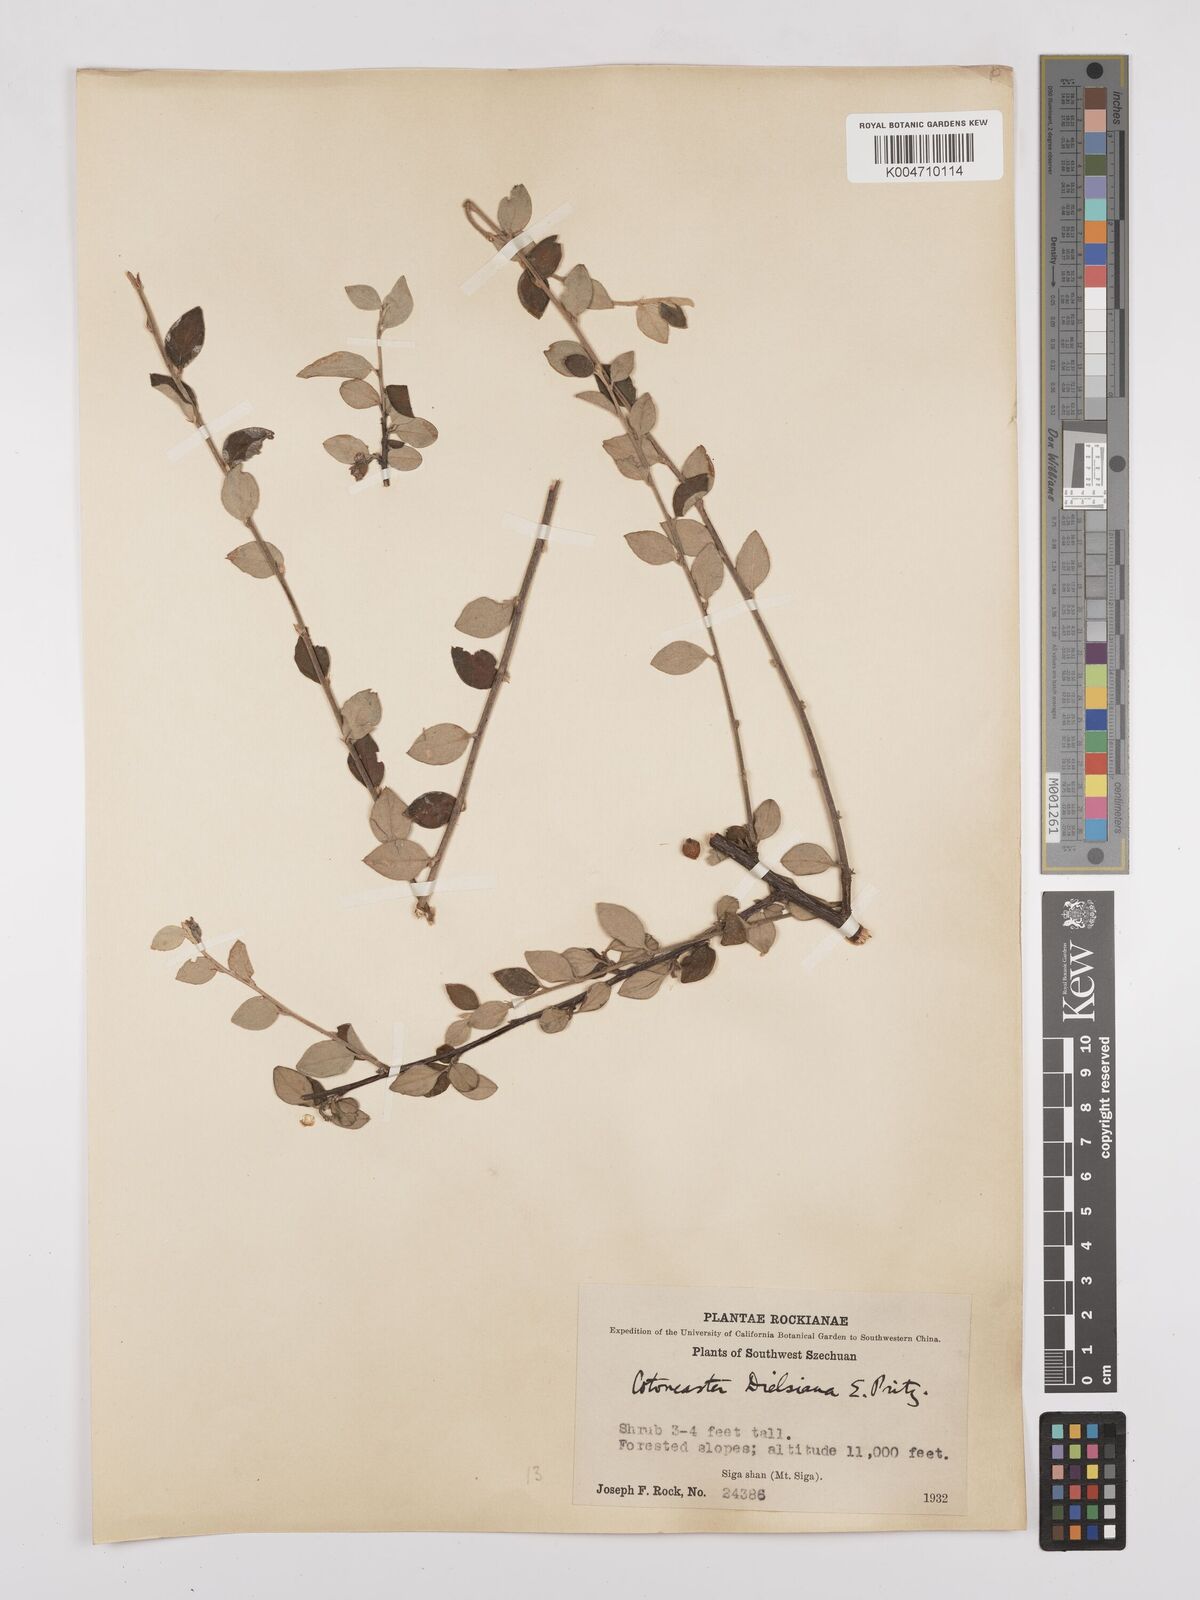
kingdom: Plantae
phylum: Tracheophyta
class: Magnoliopsida
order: Rosales
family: Rosaceae
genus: Cotoneaster
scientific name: Cotoneaster dielsianus
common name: Diels's cotoneaster
